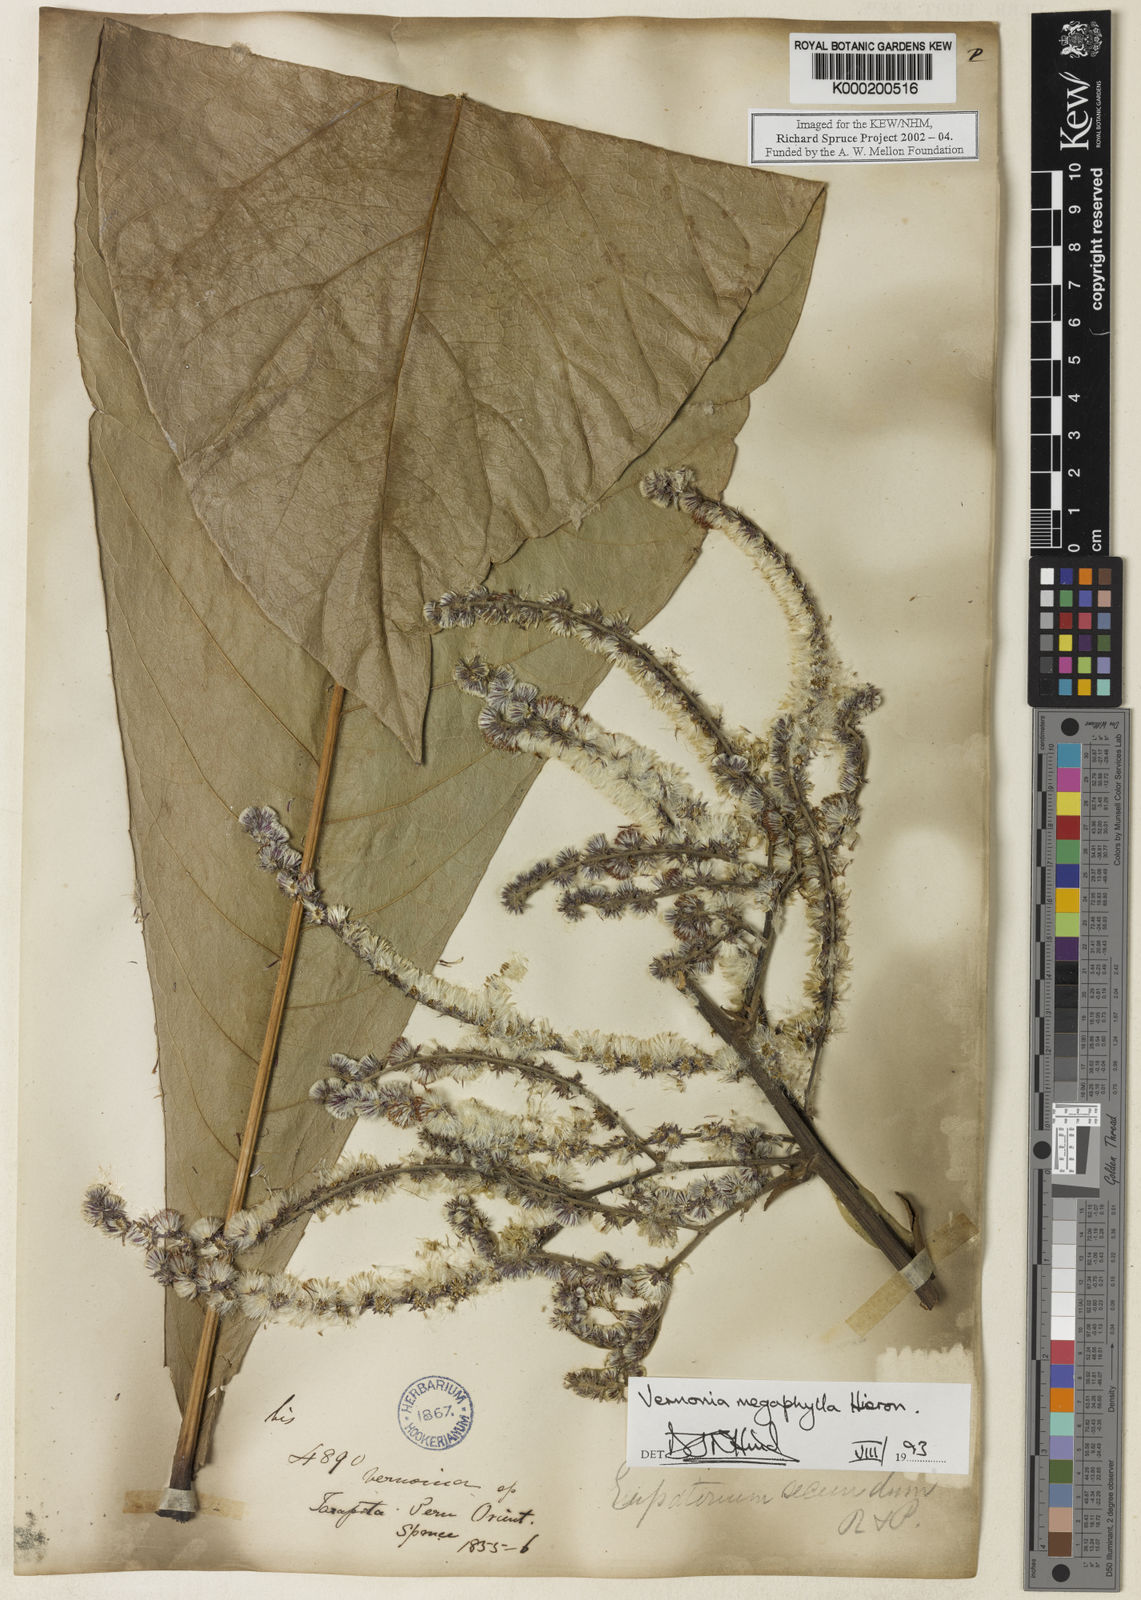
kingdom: Plantae
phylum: Tracheophyta
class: Magnoliopsida
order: Asterales
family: Asteraceae
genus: Eirmocephala
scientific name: Eirmocephala megaphylla
